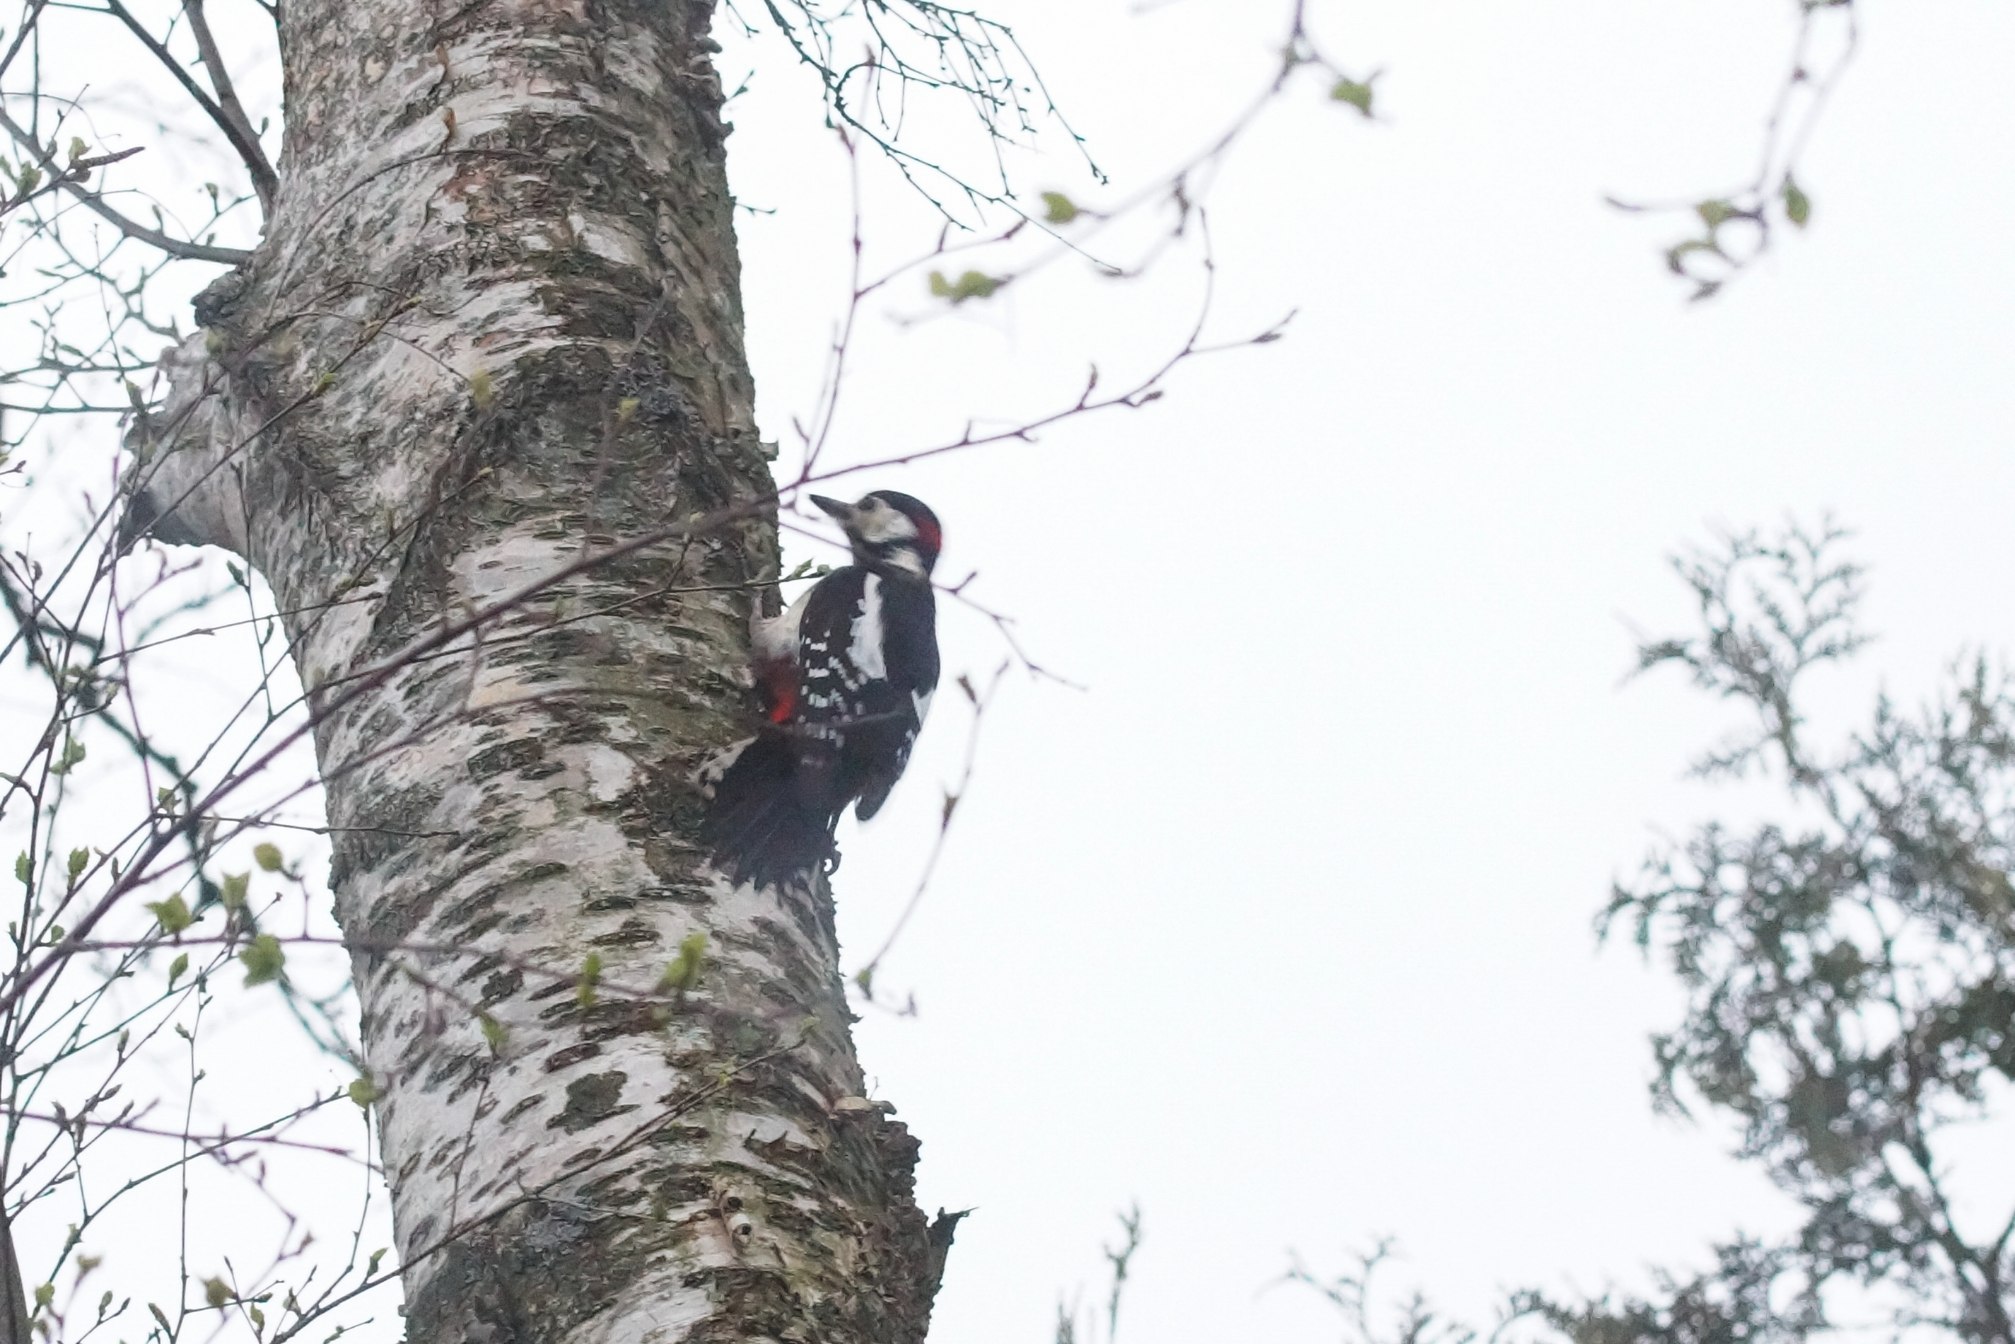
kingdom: Animalia
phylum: Chordata
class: Aves
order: Piciformes
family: Picidae
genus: Dendrocopos
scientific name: Dendrocopos major
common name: Stor flagspætte
